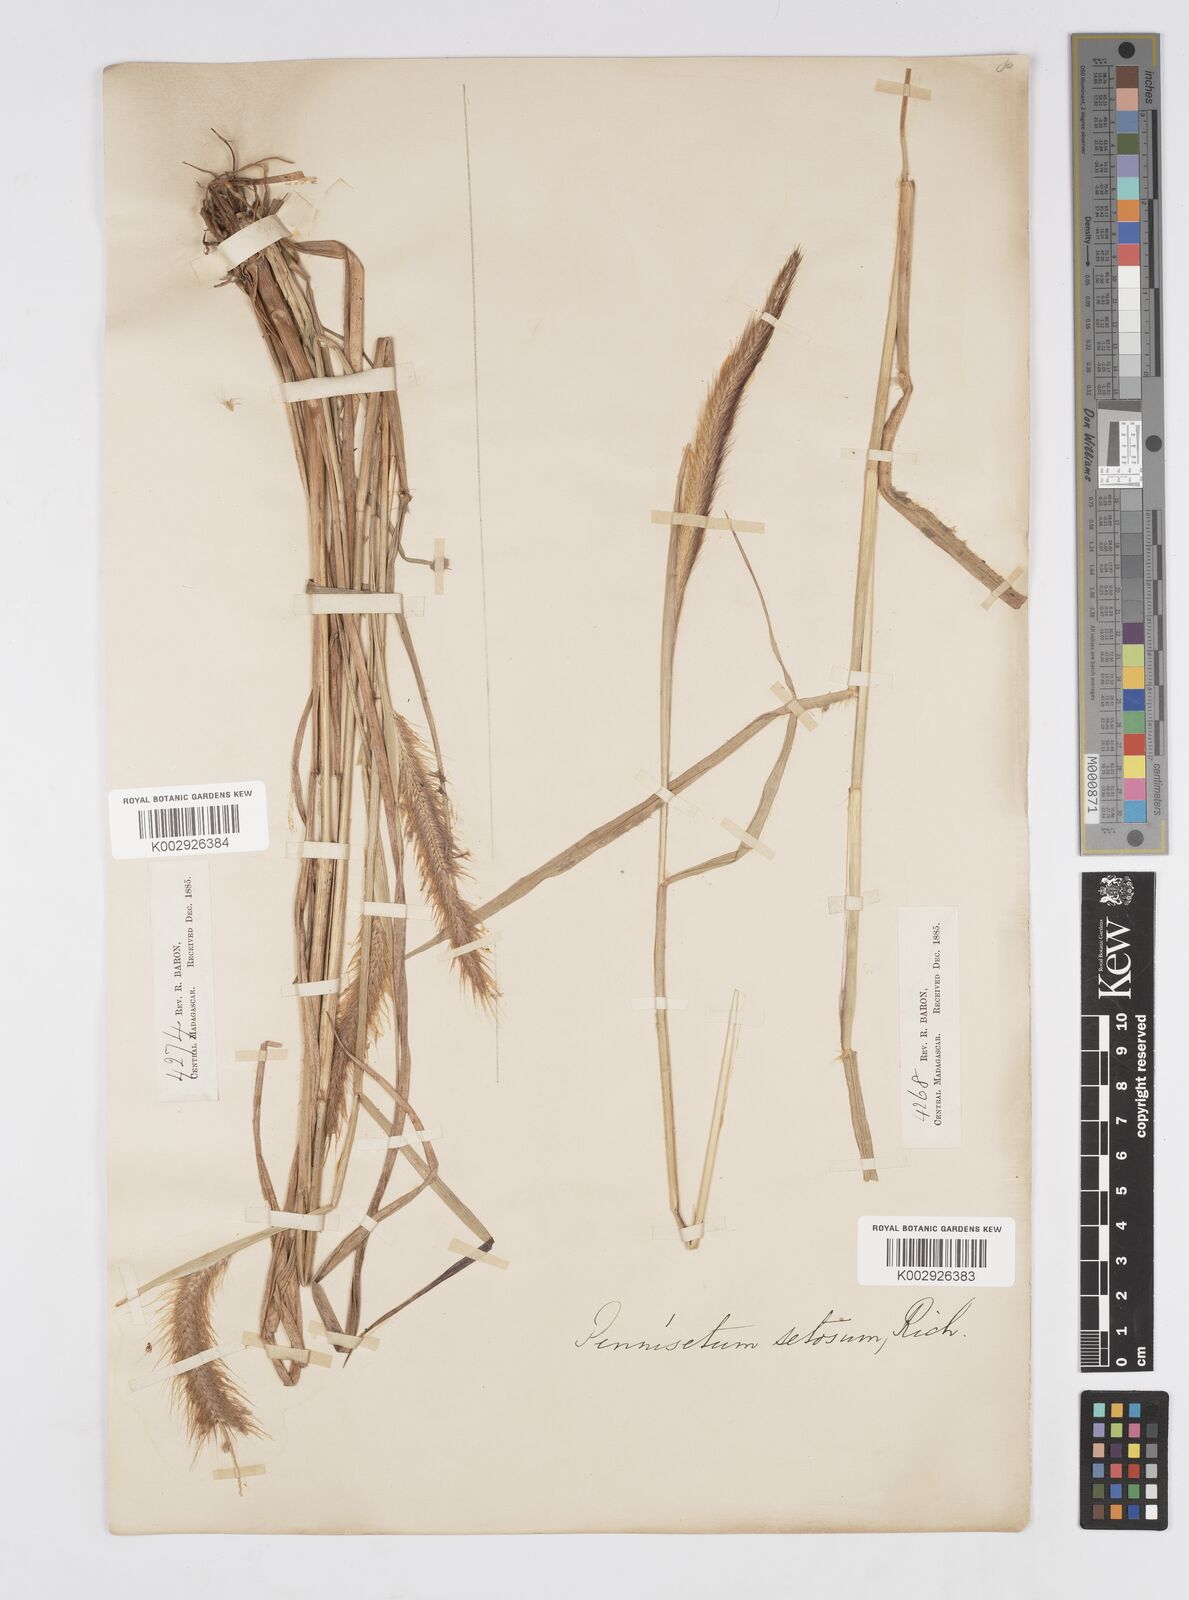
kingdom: Plantae
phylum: Tracheophyta
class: Liliopsida
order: Poales
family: Poaceae
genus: Setaria
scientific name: Setaria parviflora
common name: Knotroot bristle-grass
